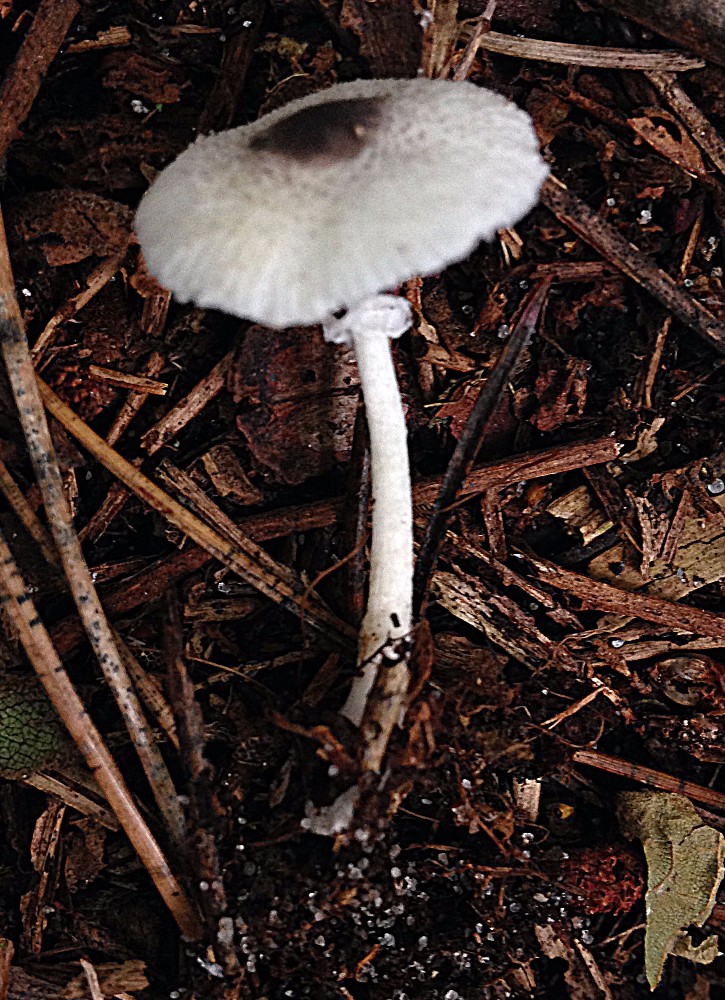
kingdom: Fungi
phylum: Basidiomycota
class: Agaricomycetes
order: Agaricales
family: Agaricaceae
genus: Leucocoprinus
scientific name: Leucocoprinus brebissonii
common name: gråsort silkehat
